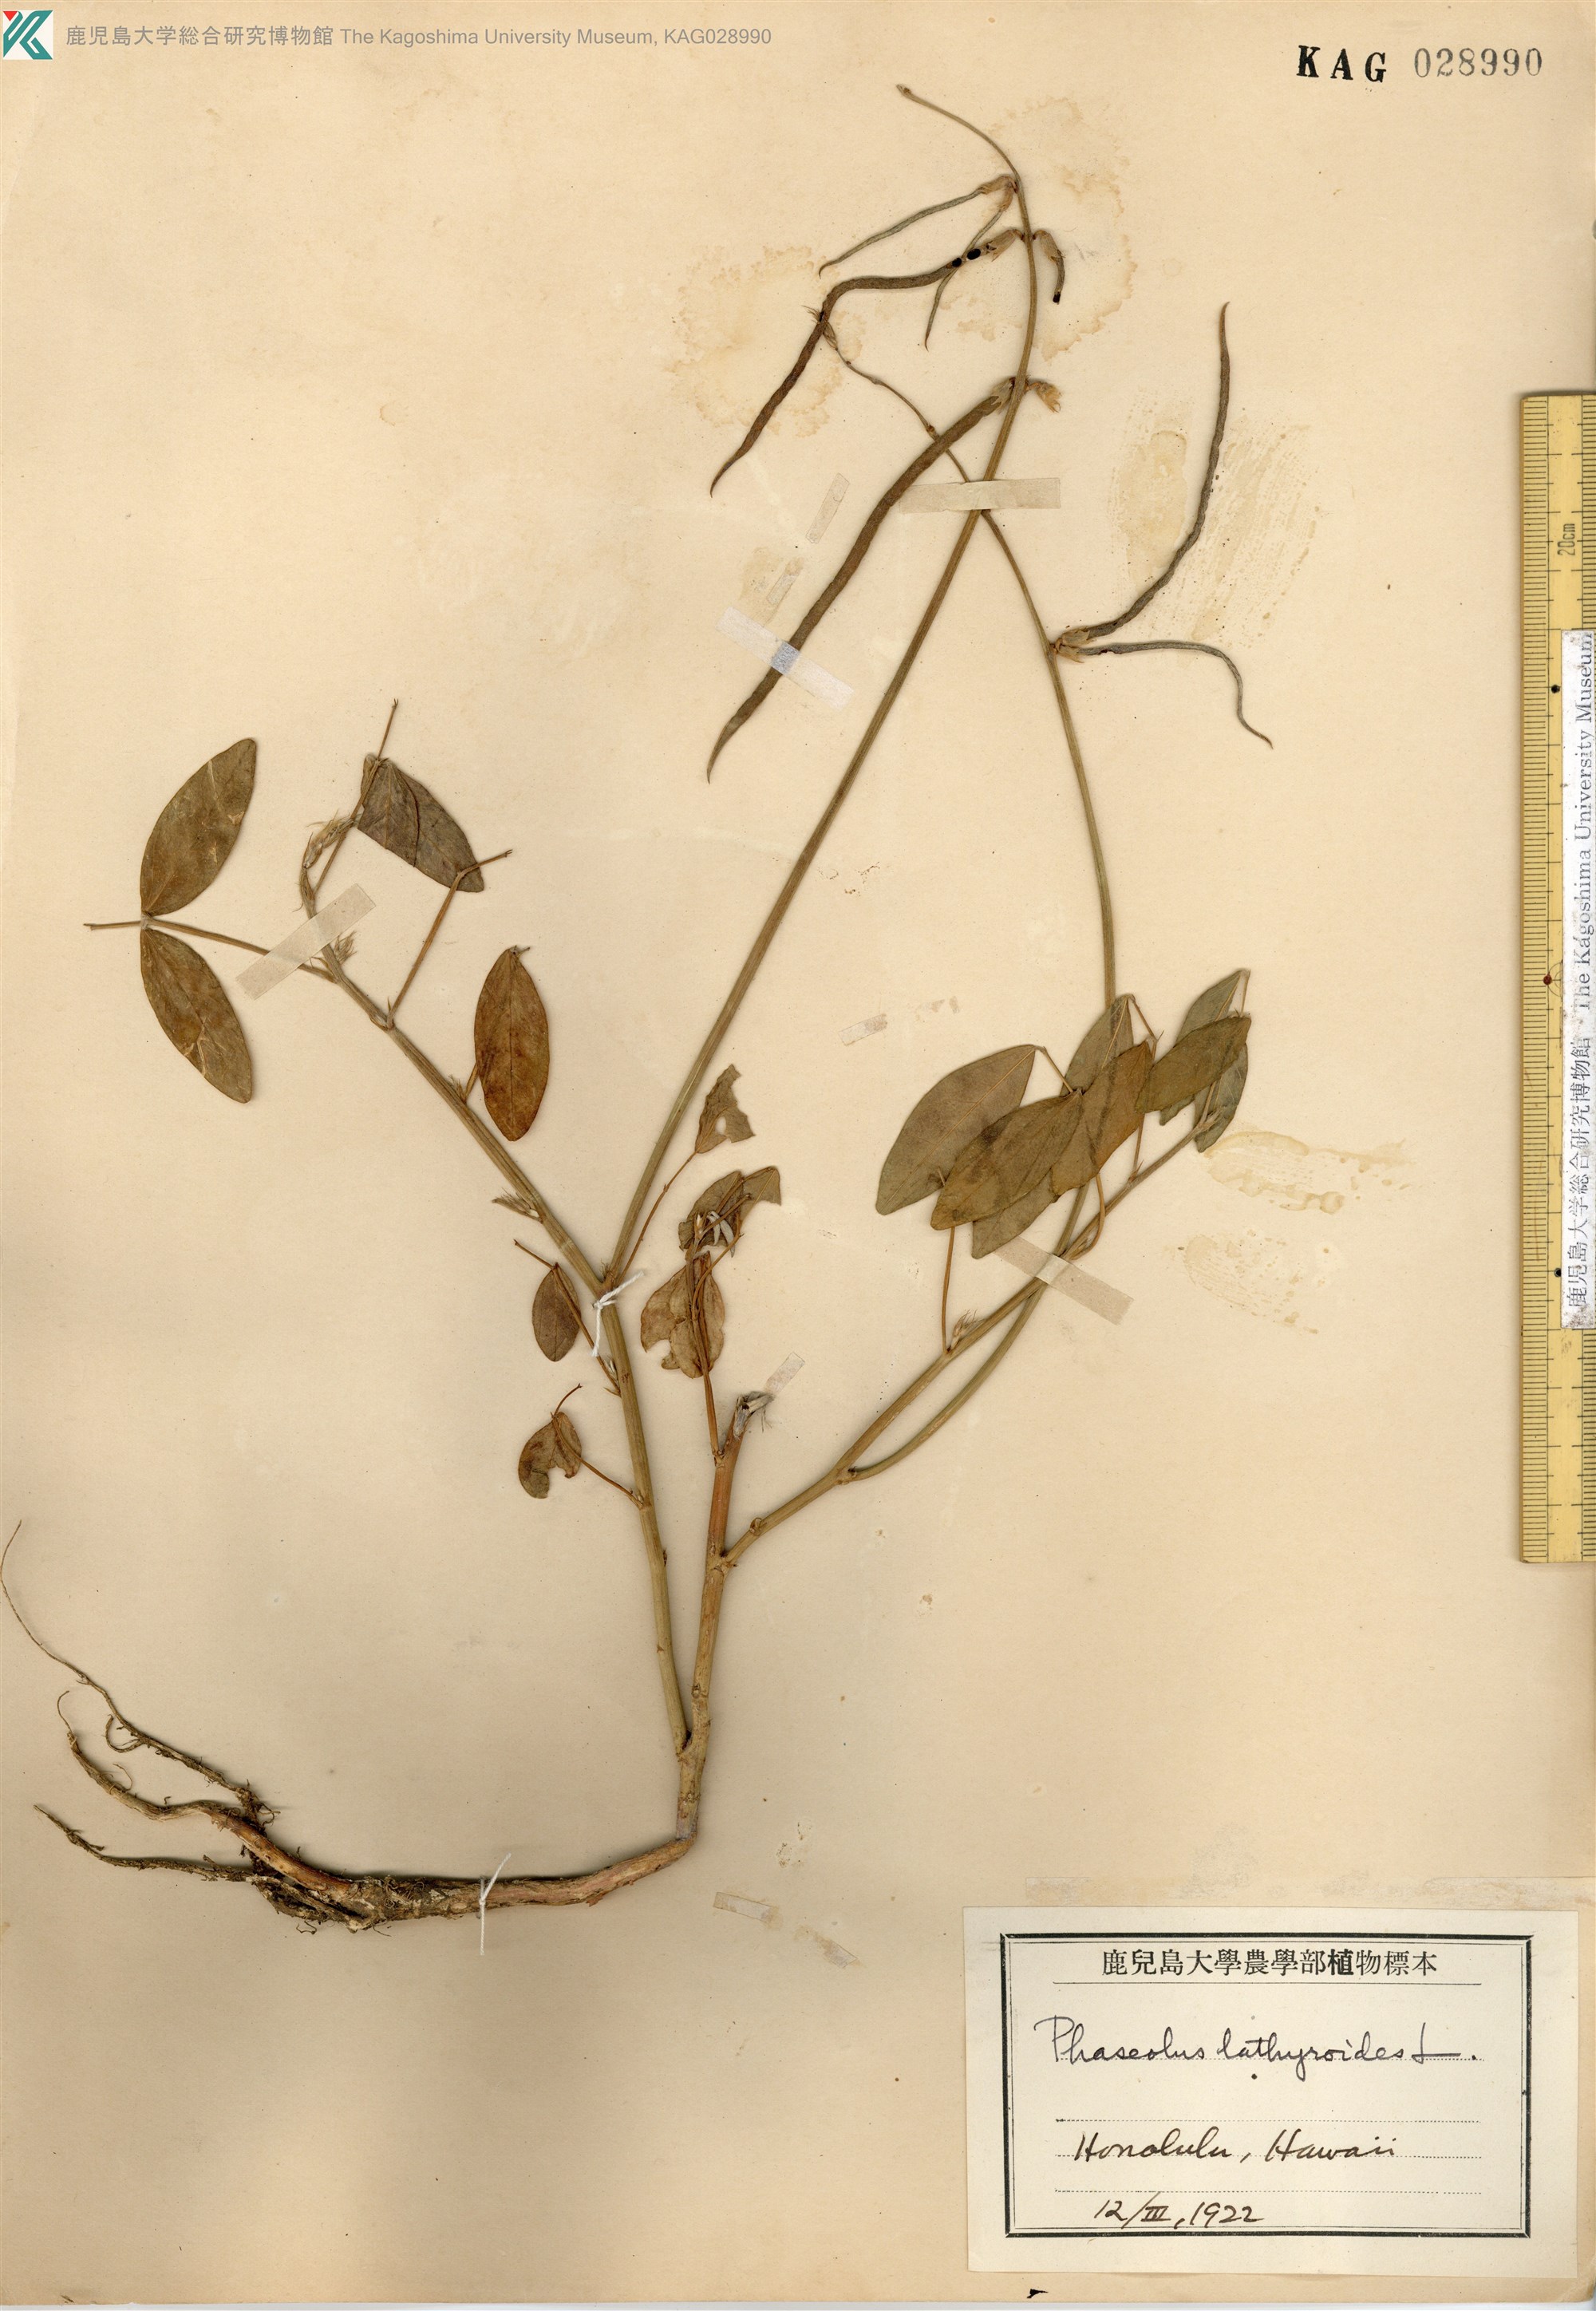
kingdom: Plantae
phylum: Tracheophyta
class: Magnoliopsida
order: Fabales
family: Fabaceae
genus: Macroptilium
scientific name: Macroptilium lathyroides
